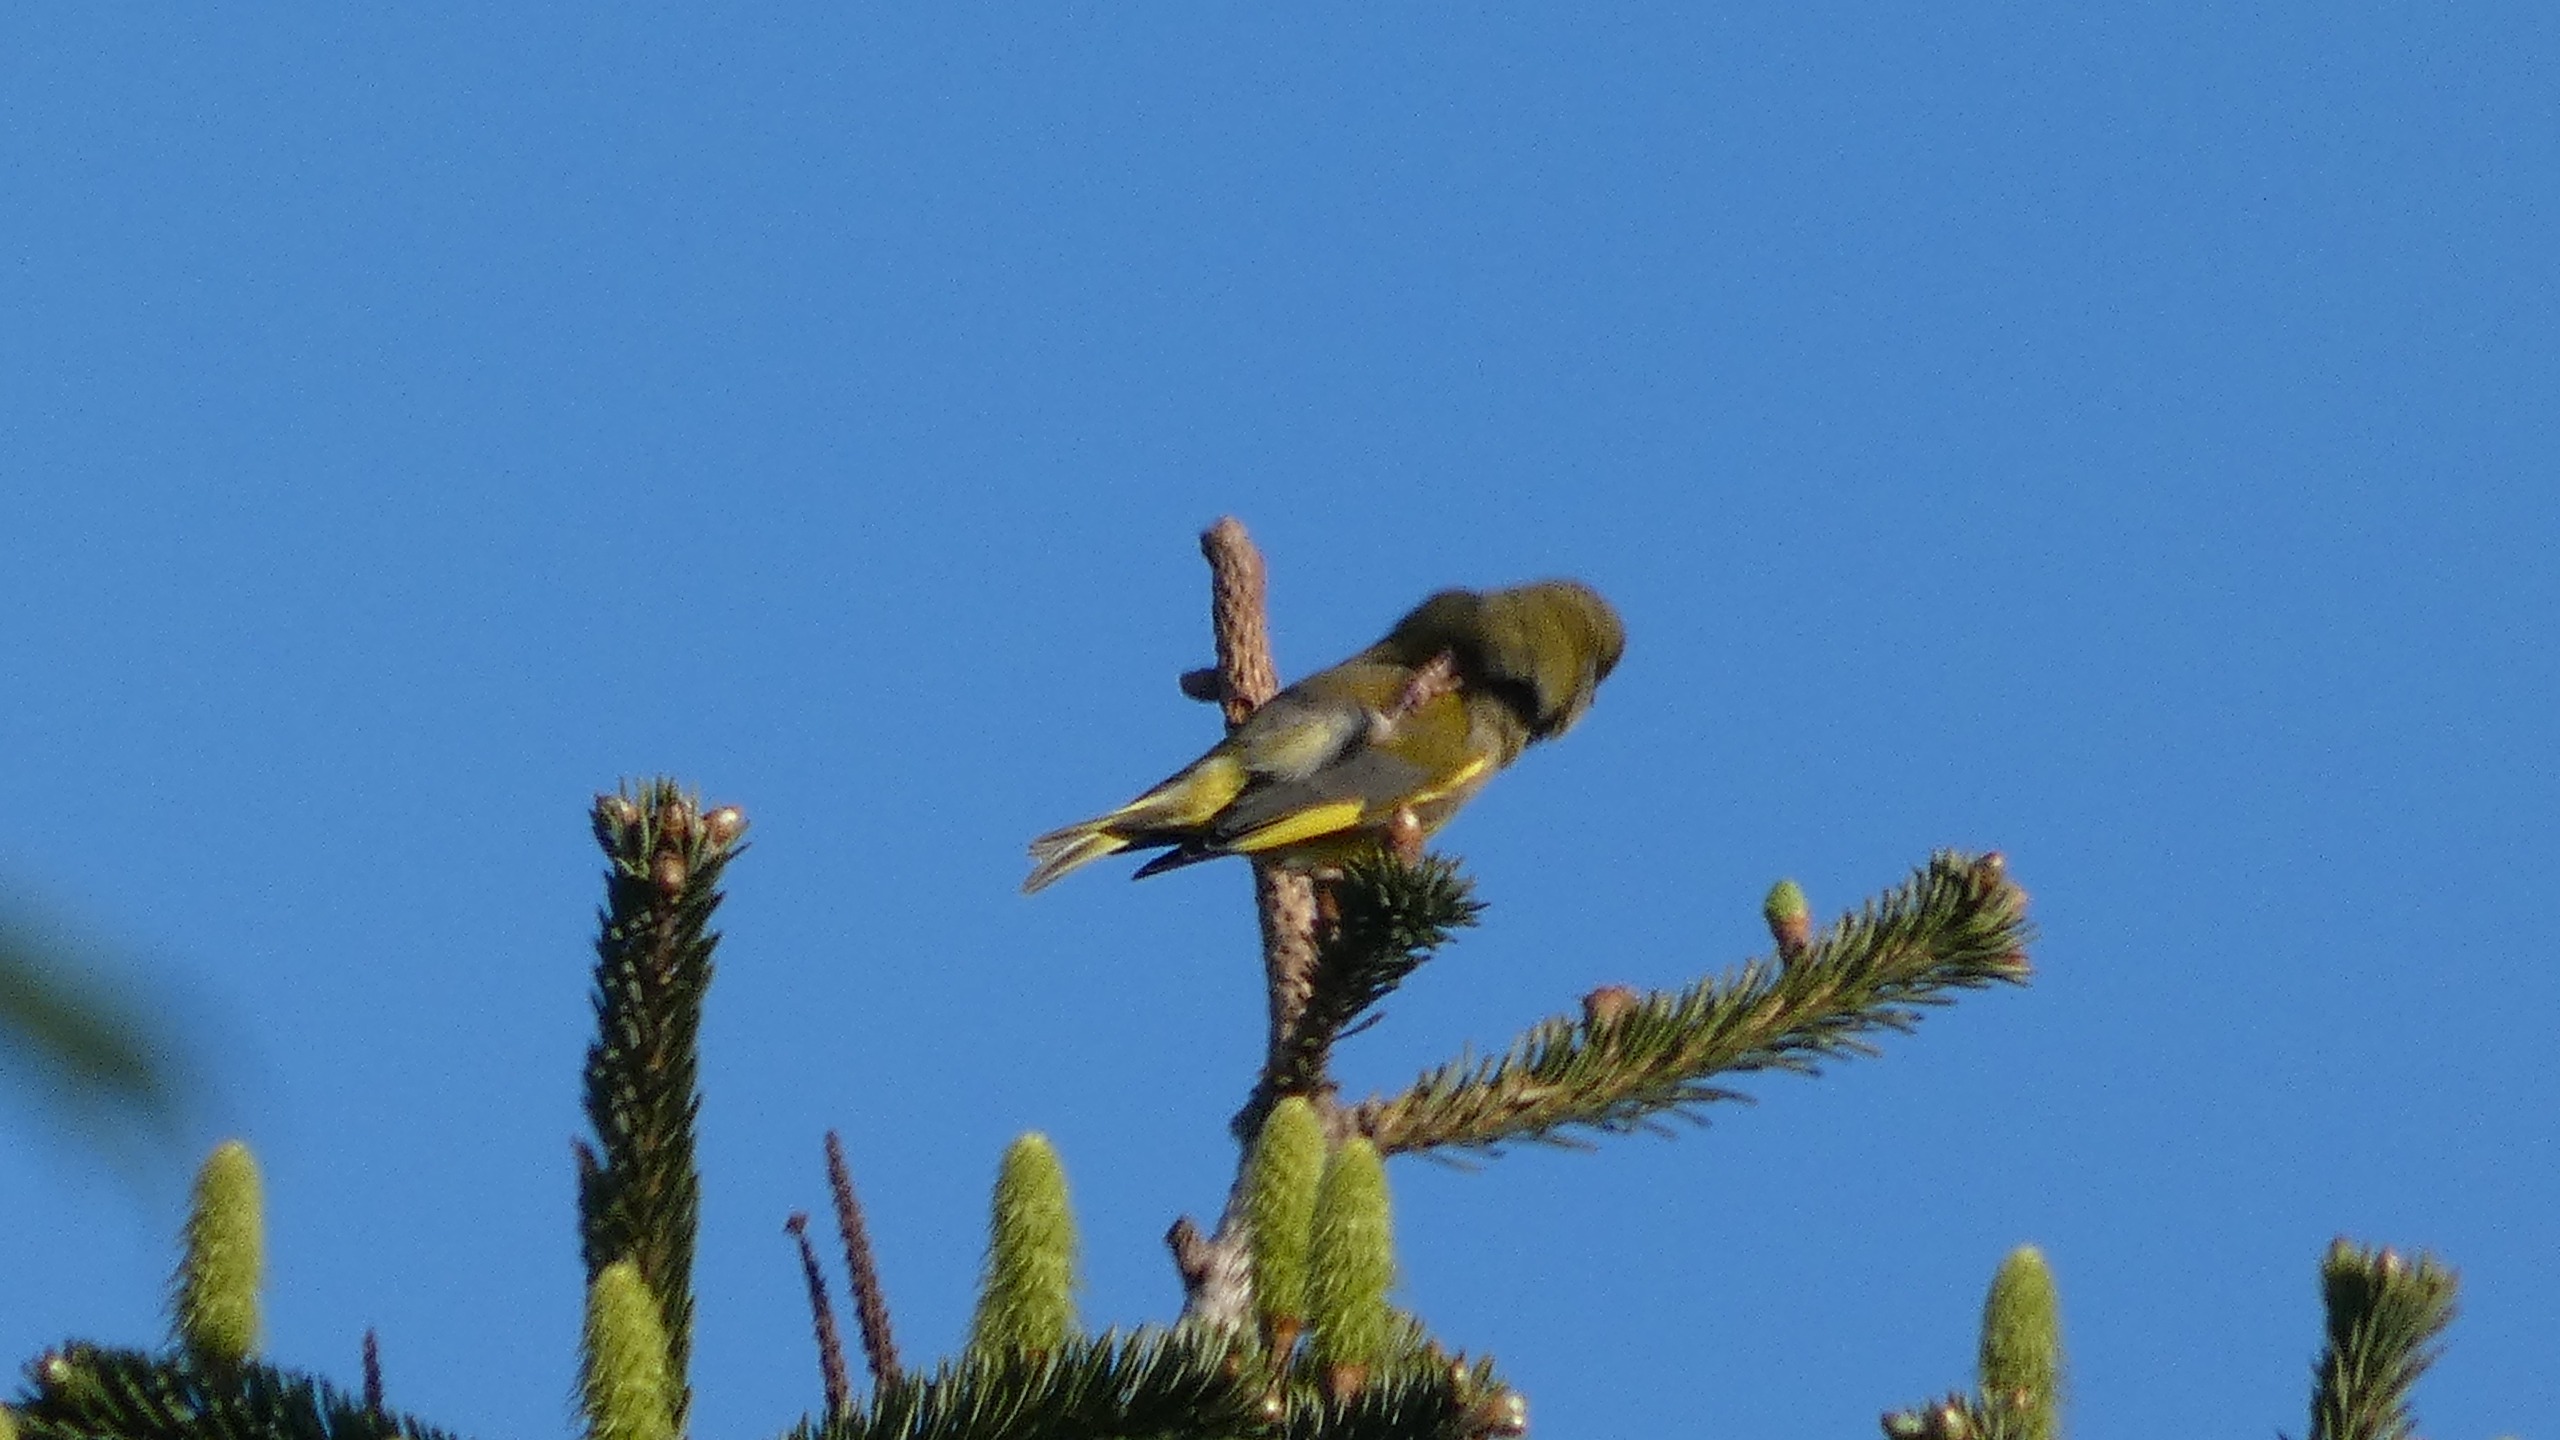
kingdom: Plantae
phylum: Tracheophyta
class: Liliopsida
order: Poales
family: Poaceae
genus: Chloris
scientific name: Chloris chloris
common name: Grønirisk
